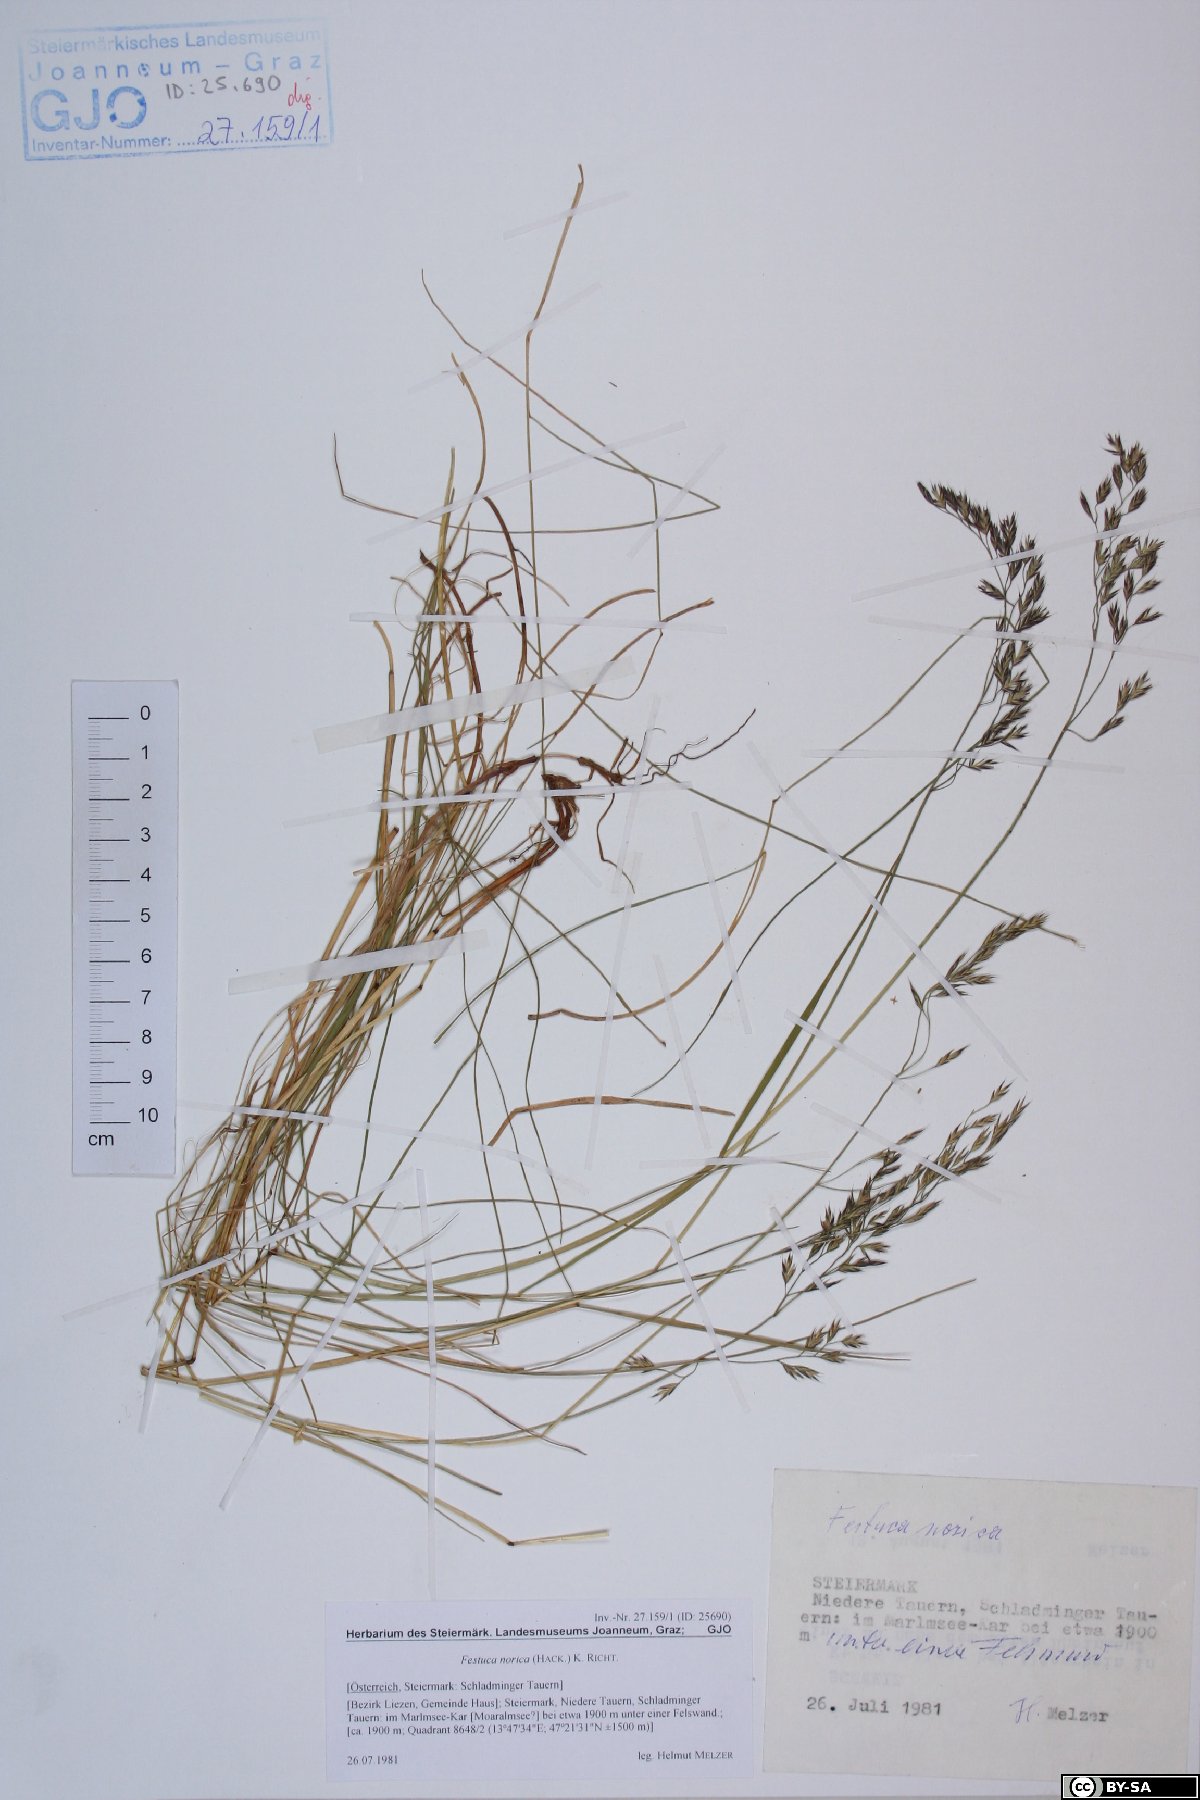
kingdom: Plantae
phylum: Tracheophyta
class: Liliopsida
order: Poales
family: Poaceae
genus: Festuca
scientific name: Festuca norica
